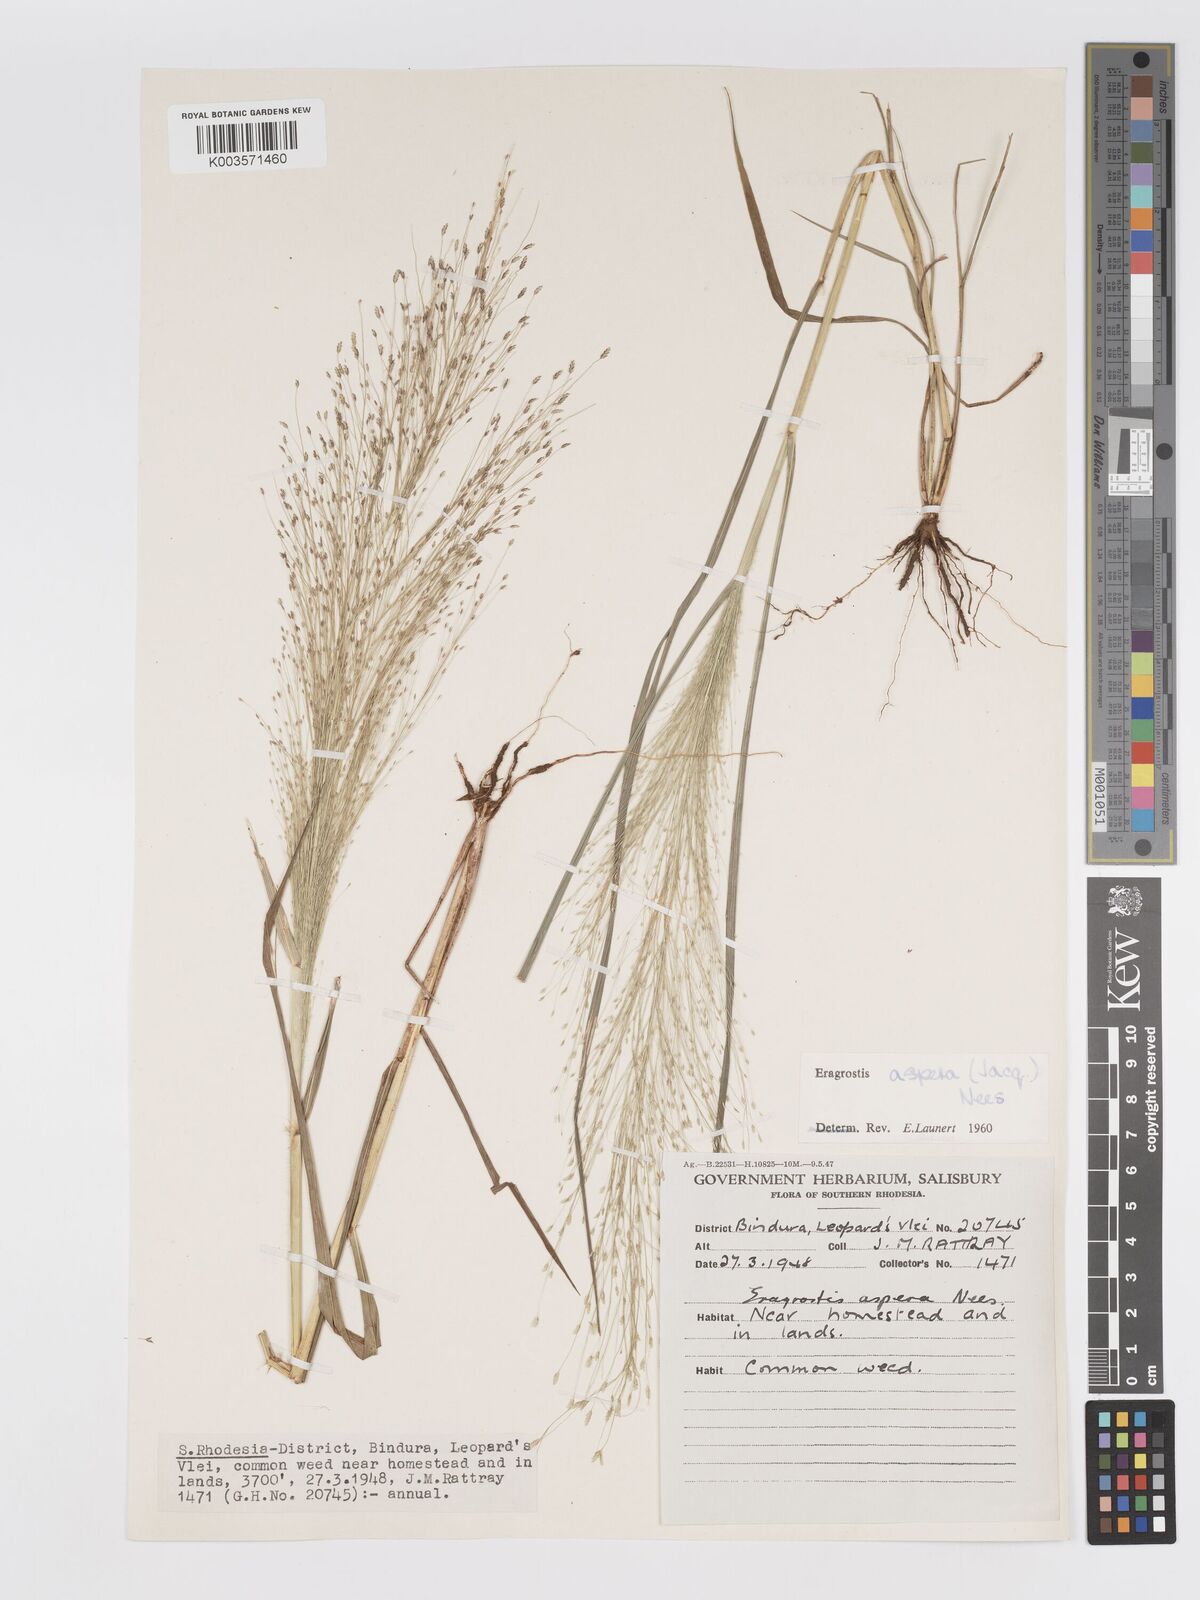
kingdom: Plantae
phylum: Tracheophyta
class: Liliopsida
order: Poales
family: Poaceae
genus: Eragrostis
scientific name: Eragrostis aspera
